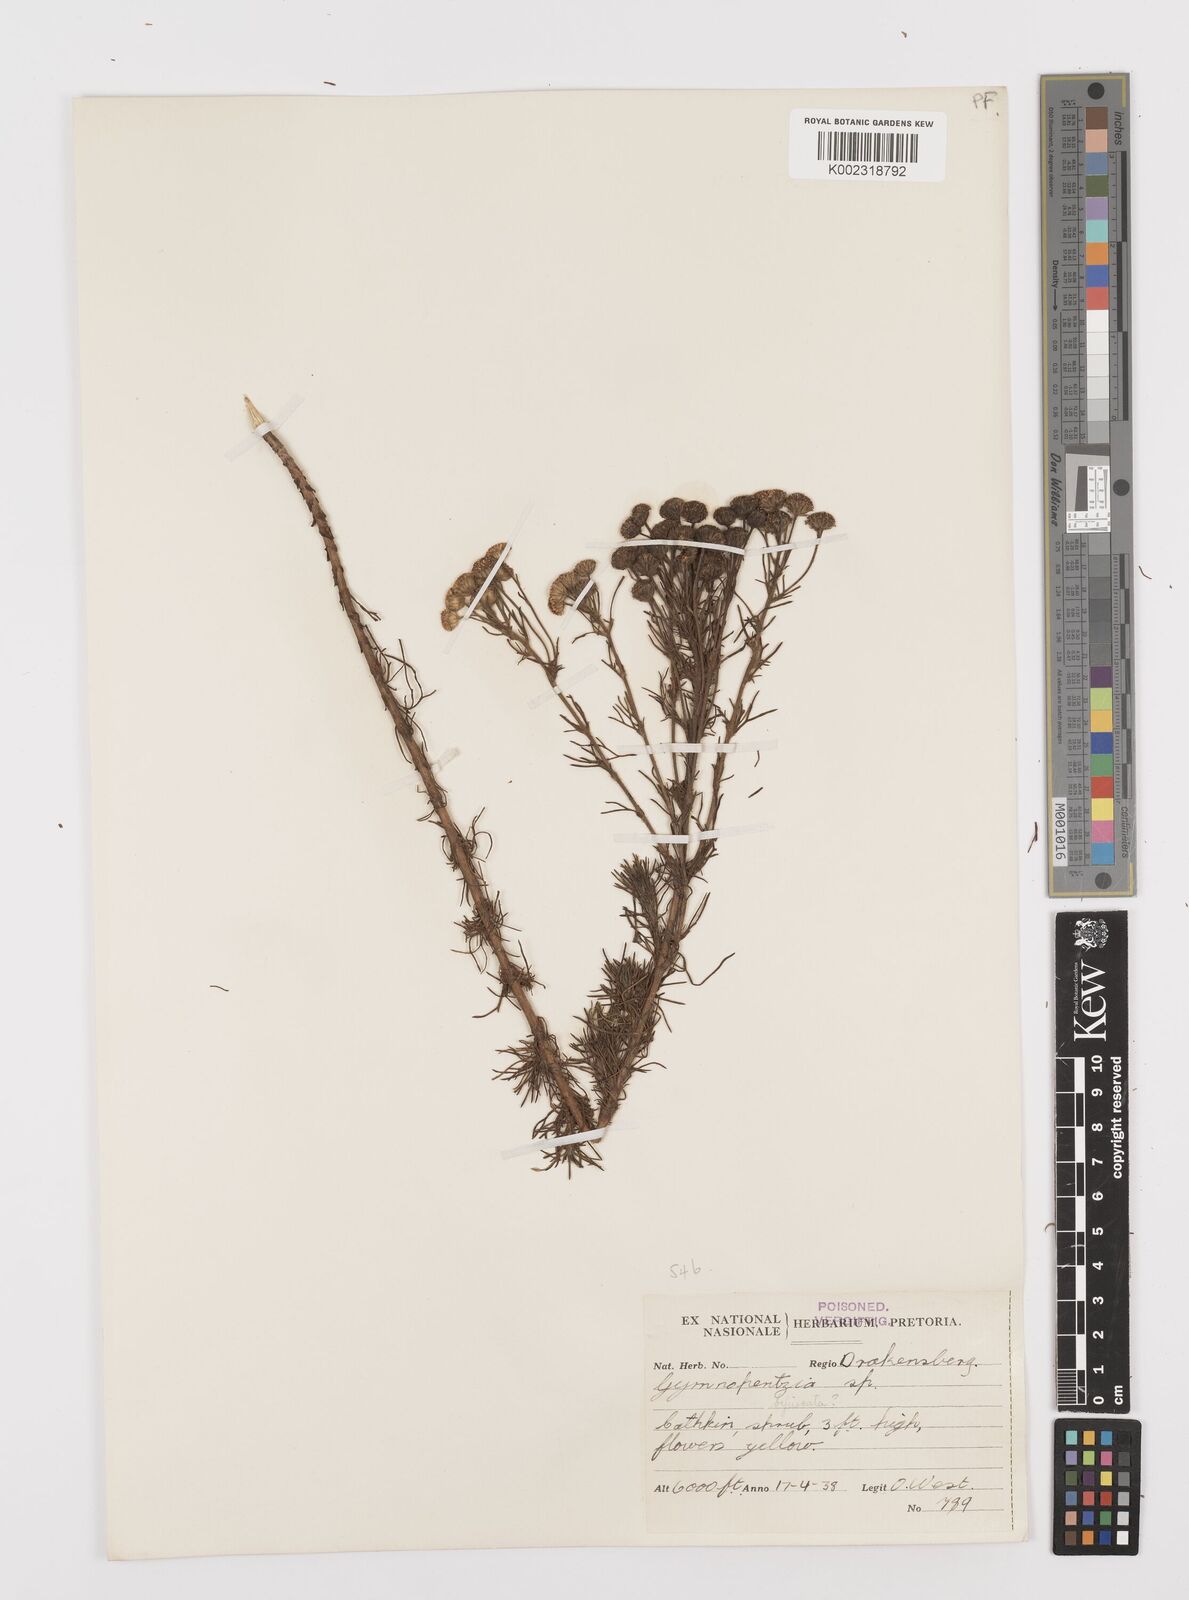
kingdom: Plantae
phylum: Tracheophyta
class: Magnoliopsida
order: Asterales
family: Asteraceae
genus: Gymnopentzia
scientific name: Gymnopentzia bifurcata
